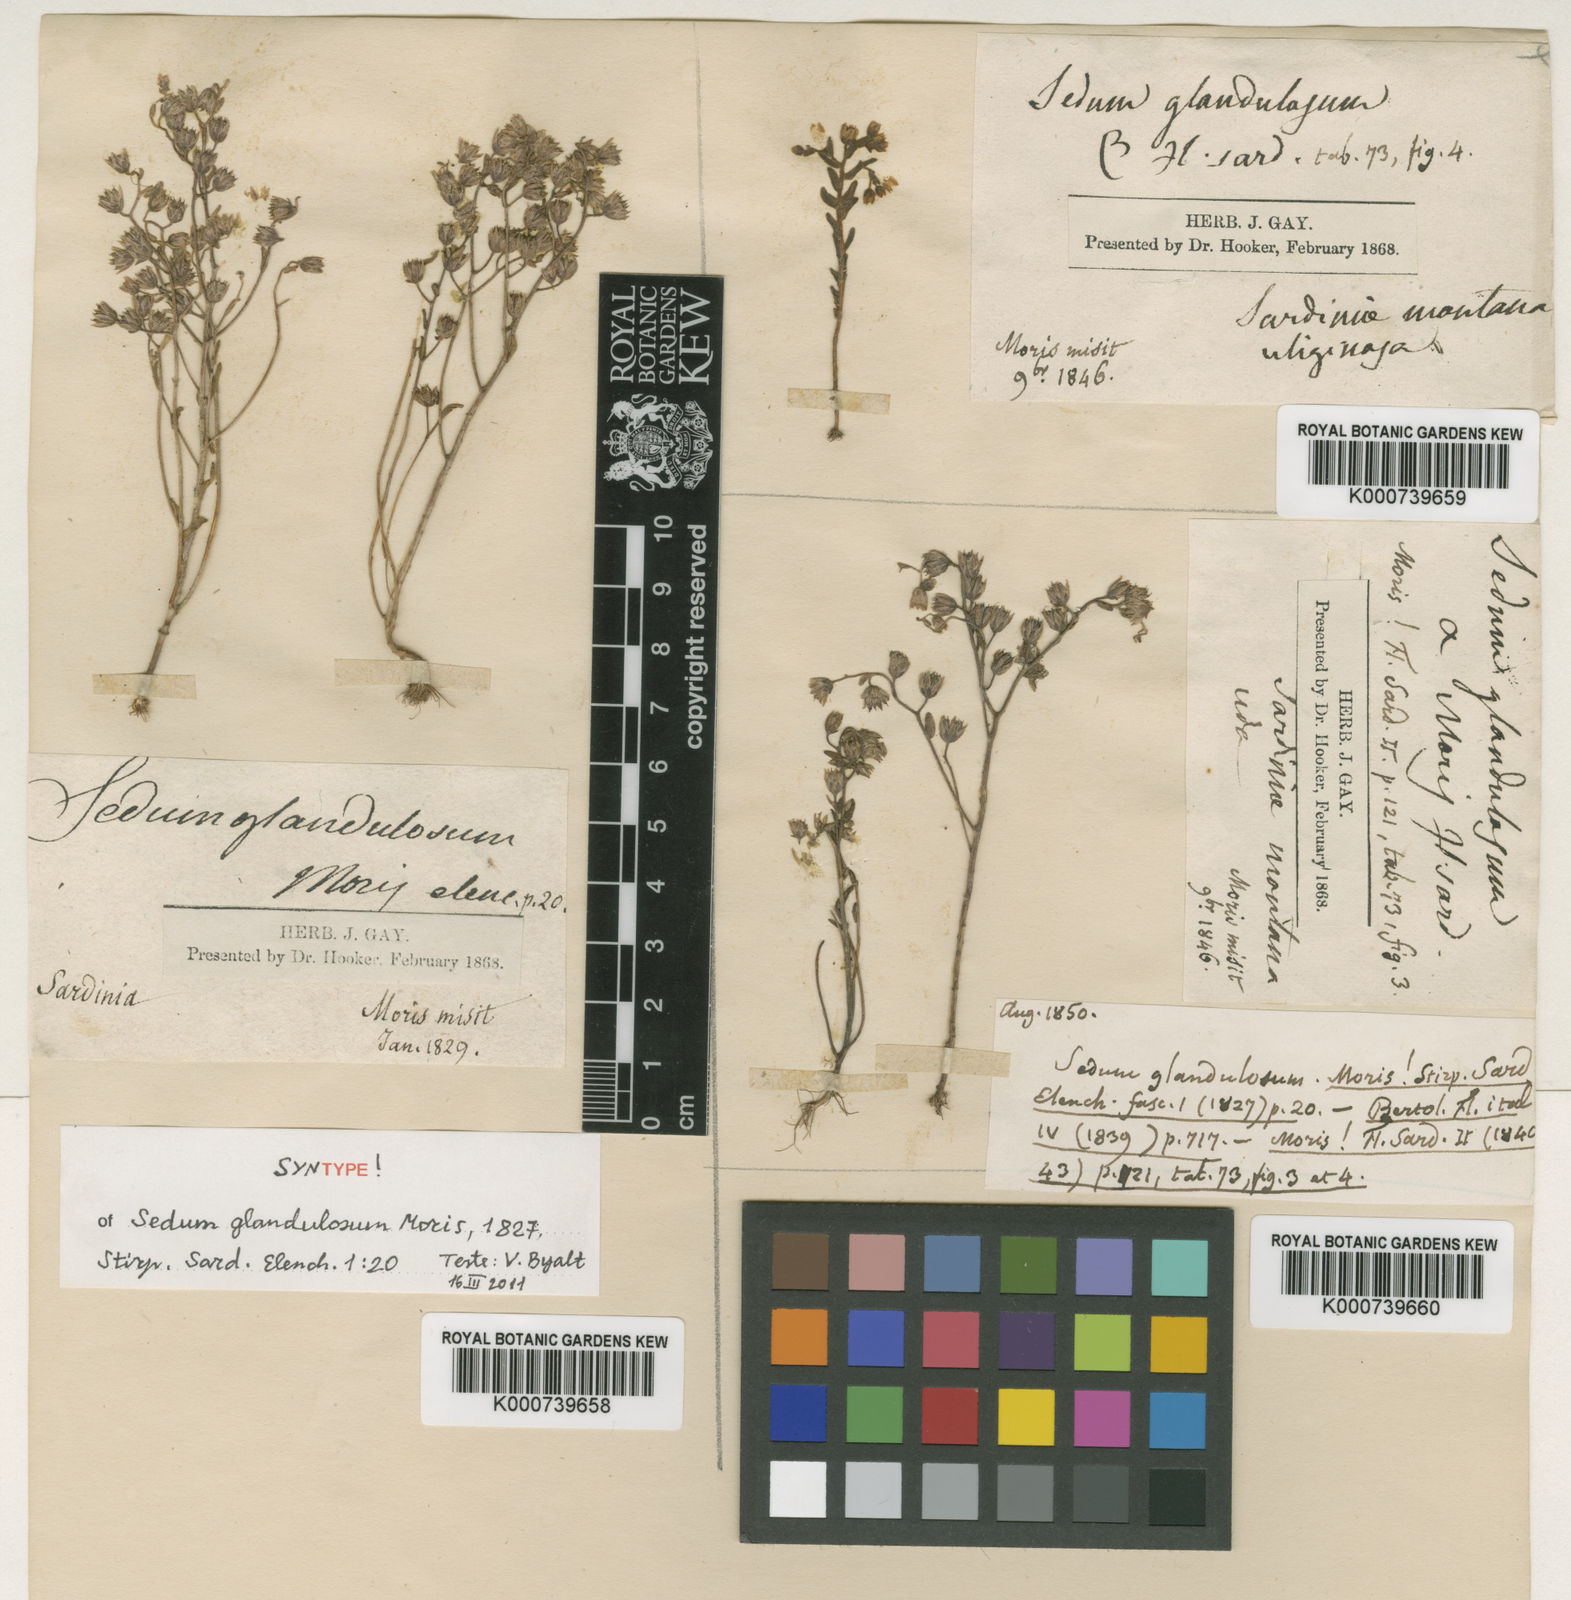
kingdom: Plantae
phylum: Tracheophyta
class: Magnoliopsida
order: Saxifragales
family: Crassulaceae
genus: Sedum
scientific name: Sedum villosum
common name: Hairy stonecrop
